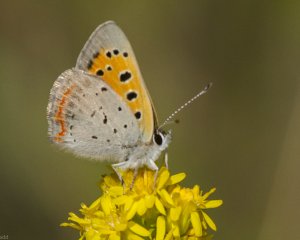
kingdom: Animalia
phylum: Arthropoda
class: Insecta
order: Lepidoptera
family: Lycaenidae
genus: Lycaena
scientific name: Lycaena phlaeas
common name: American Copper
